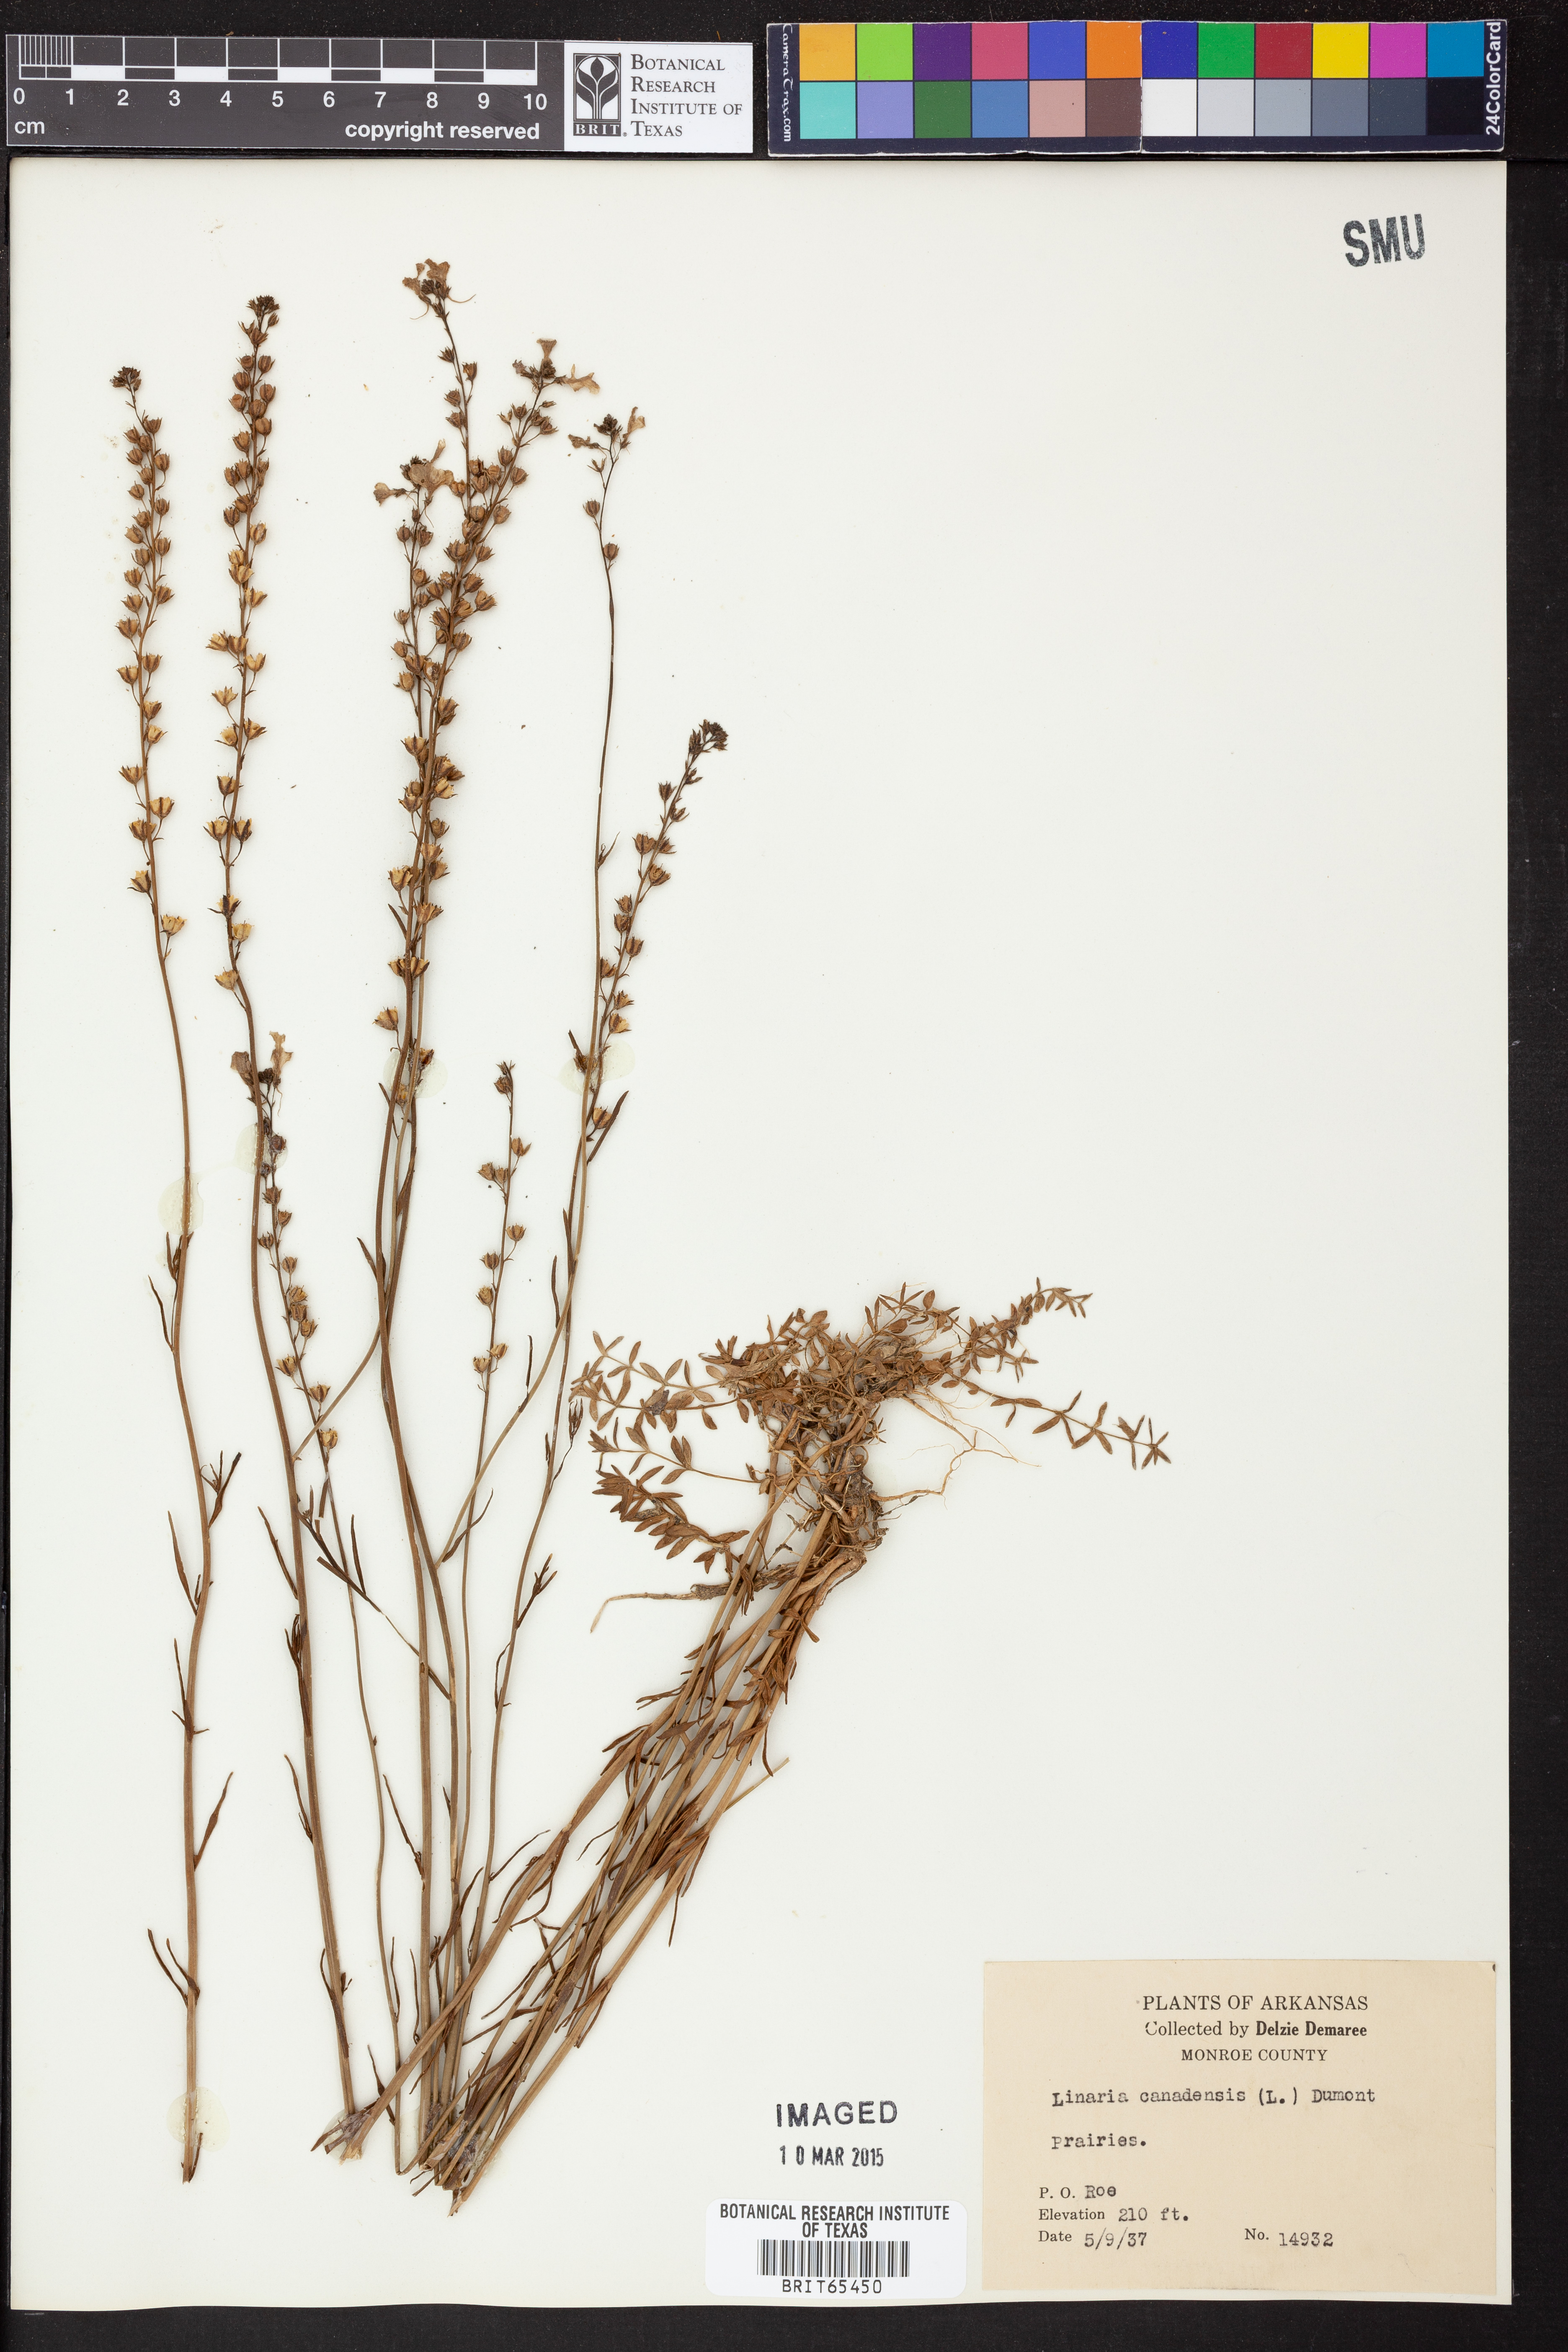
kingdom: Plantae
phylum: Tracheophyta
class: Magnoliopsida
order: Lamiales
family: Plantaginaceae
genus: Nuttallanthus
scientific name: Nuttallanthus canadensis
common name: Blue toadflax
